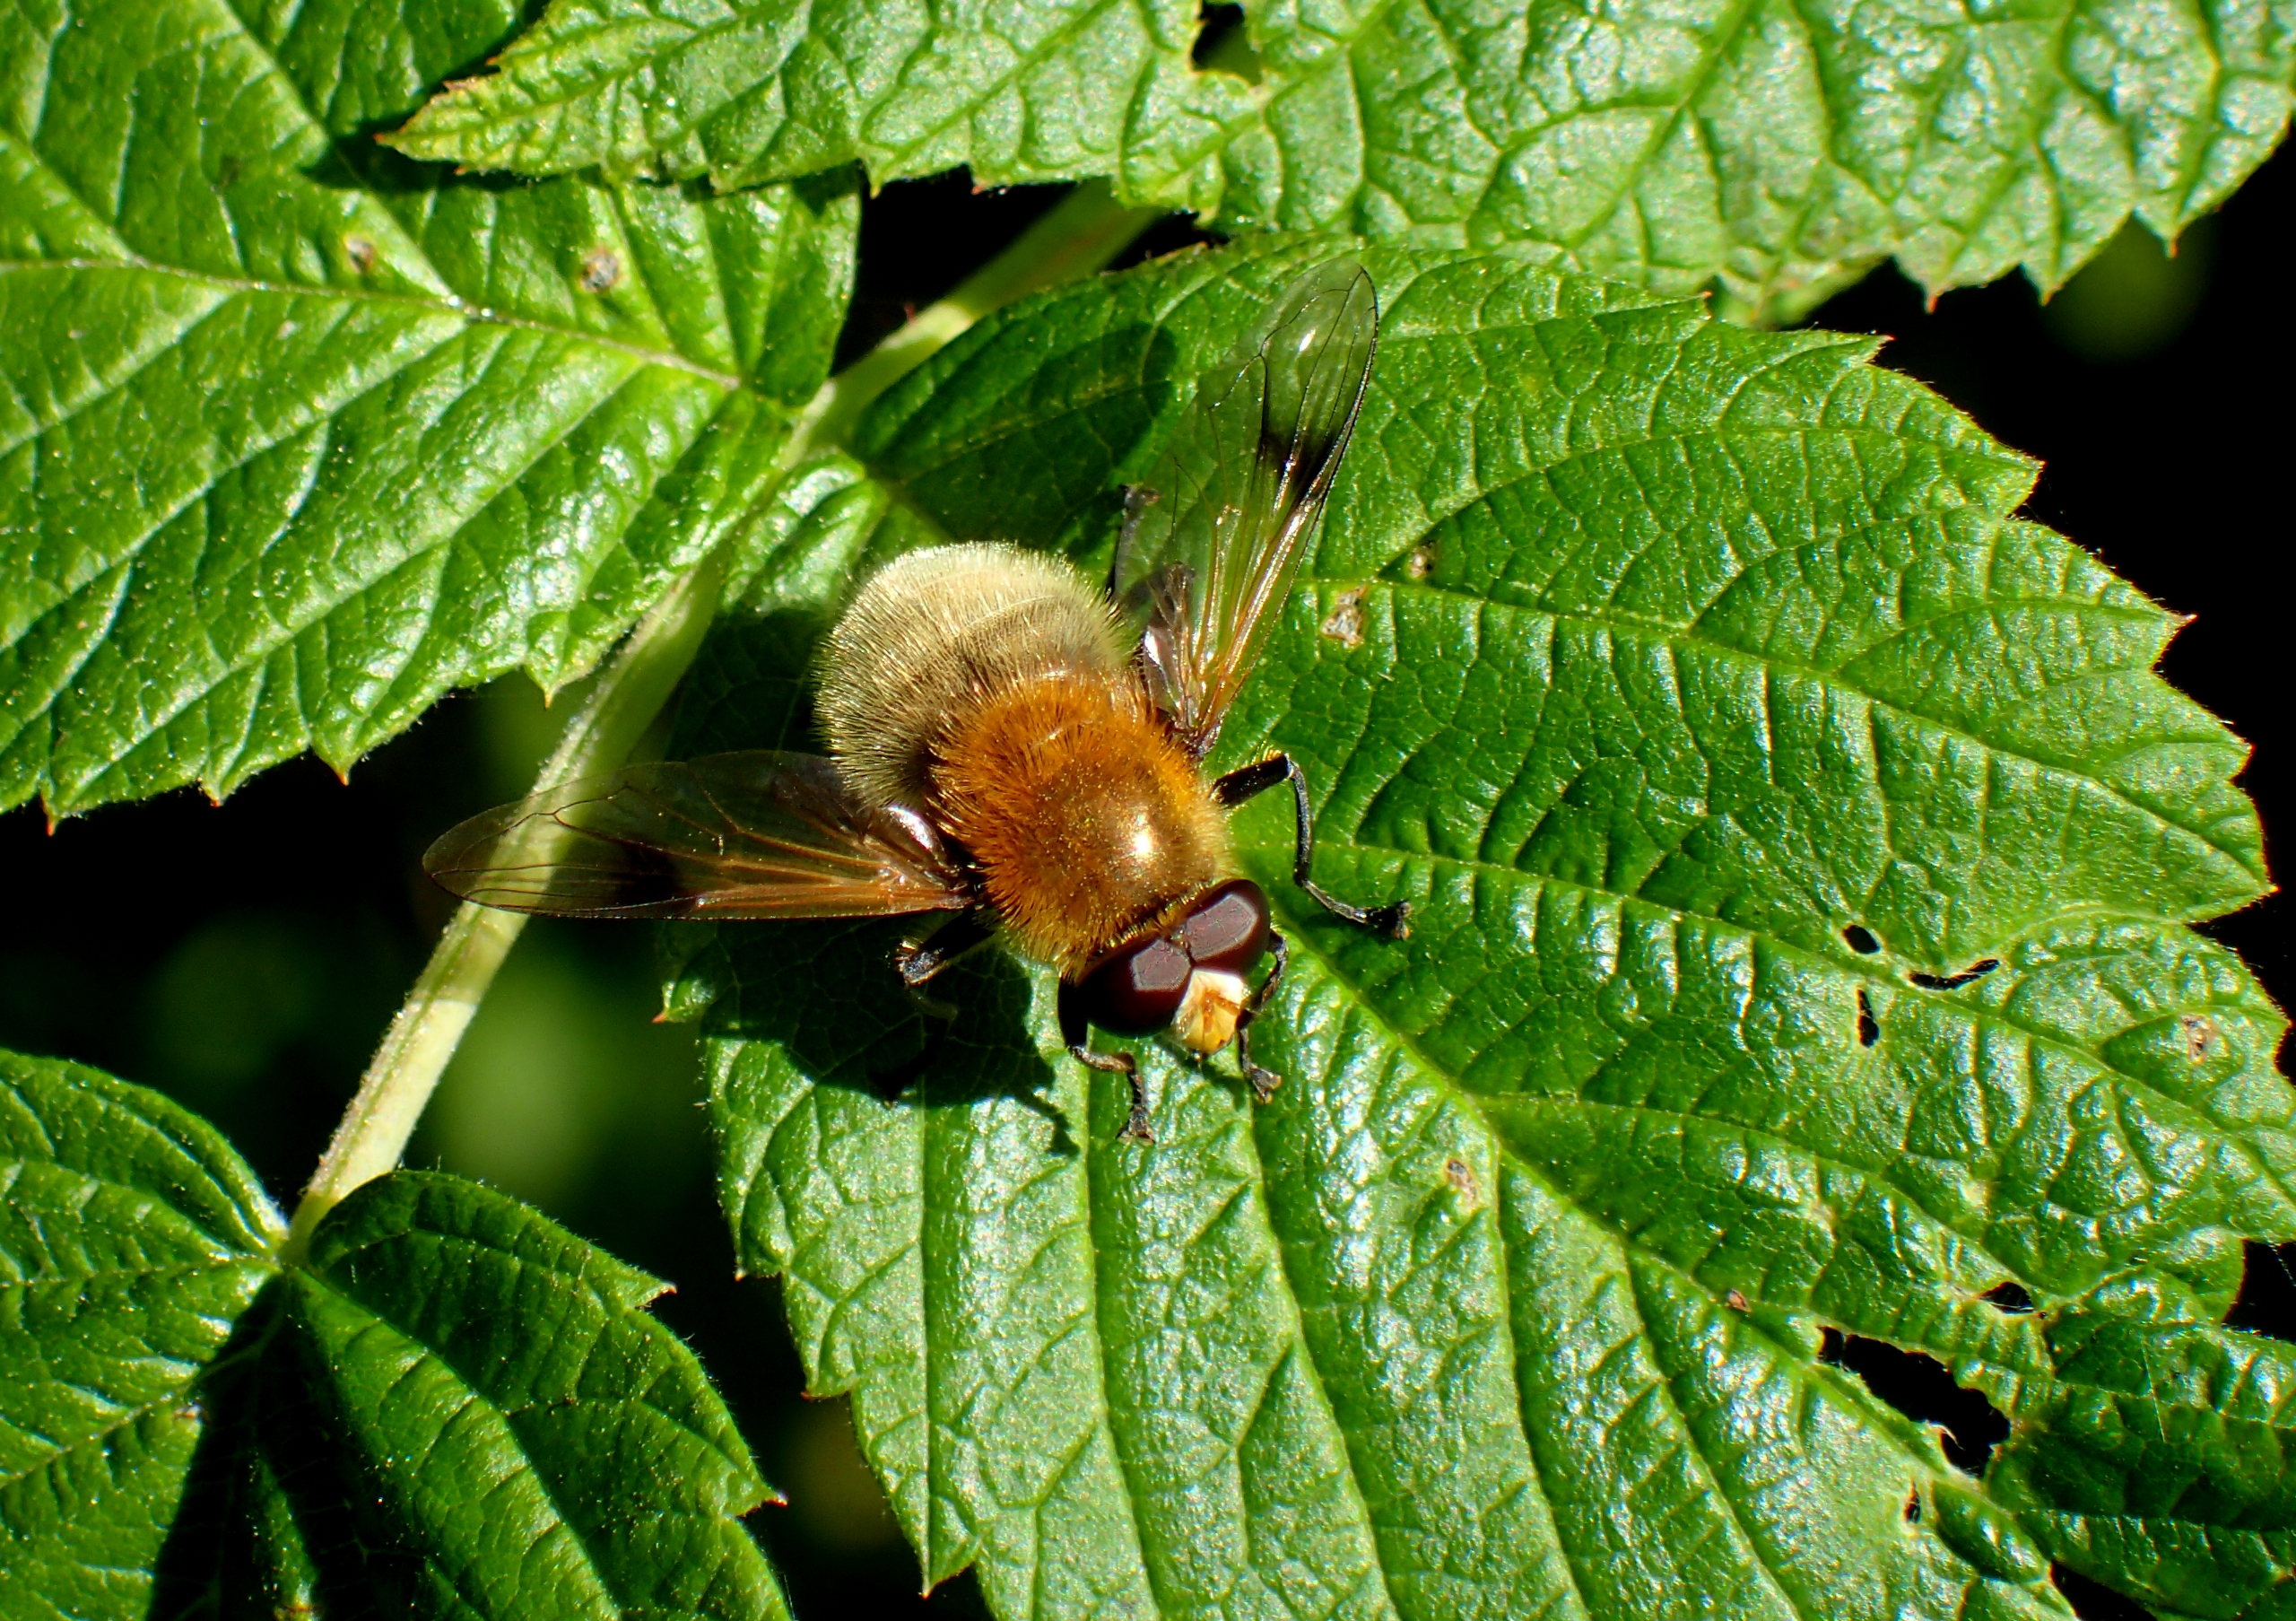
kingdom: Animalia
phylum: Arthropoda
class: Insecta
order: Diptera
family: Syrphidae
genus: Sericomyia
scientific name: Sericomyia superbiens
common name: Brun bjørnesvirreflue
